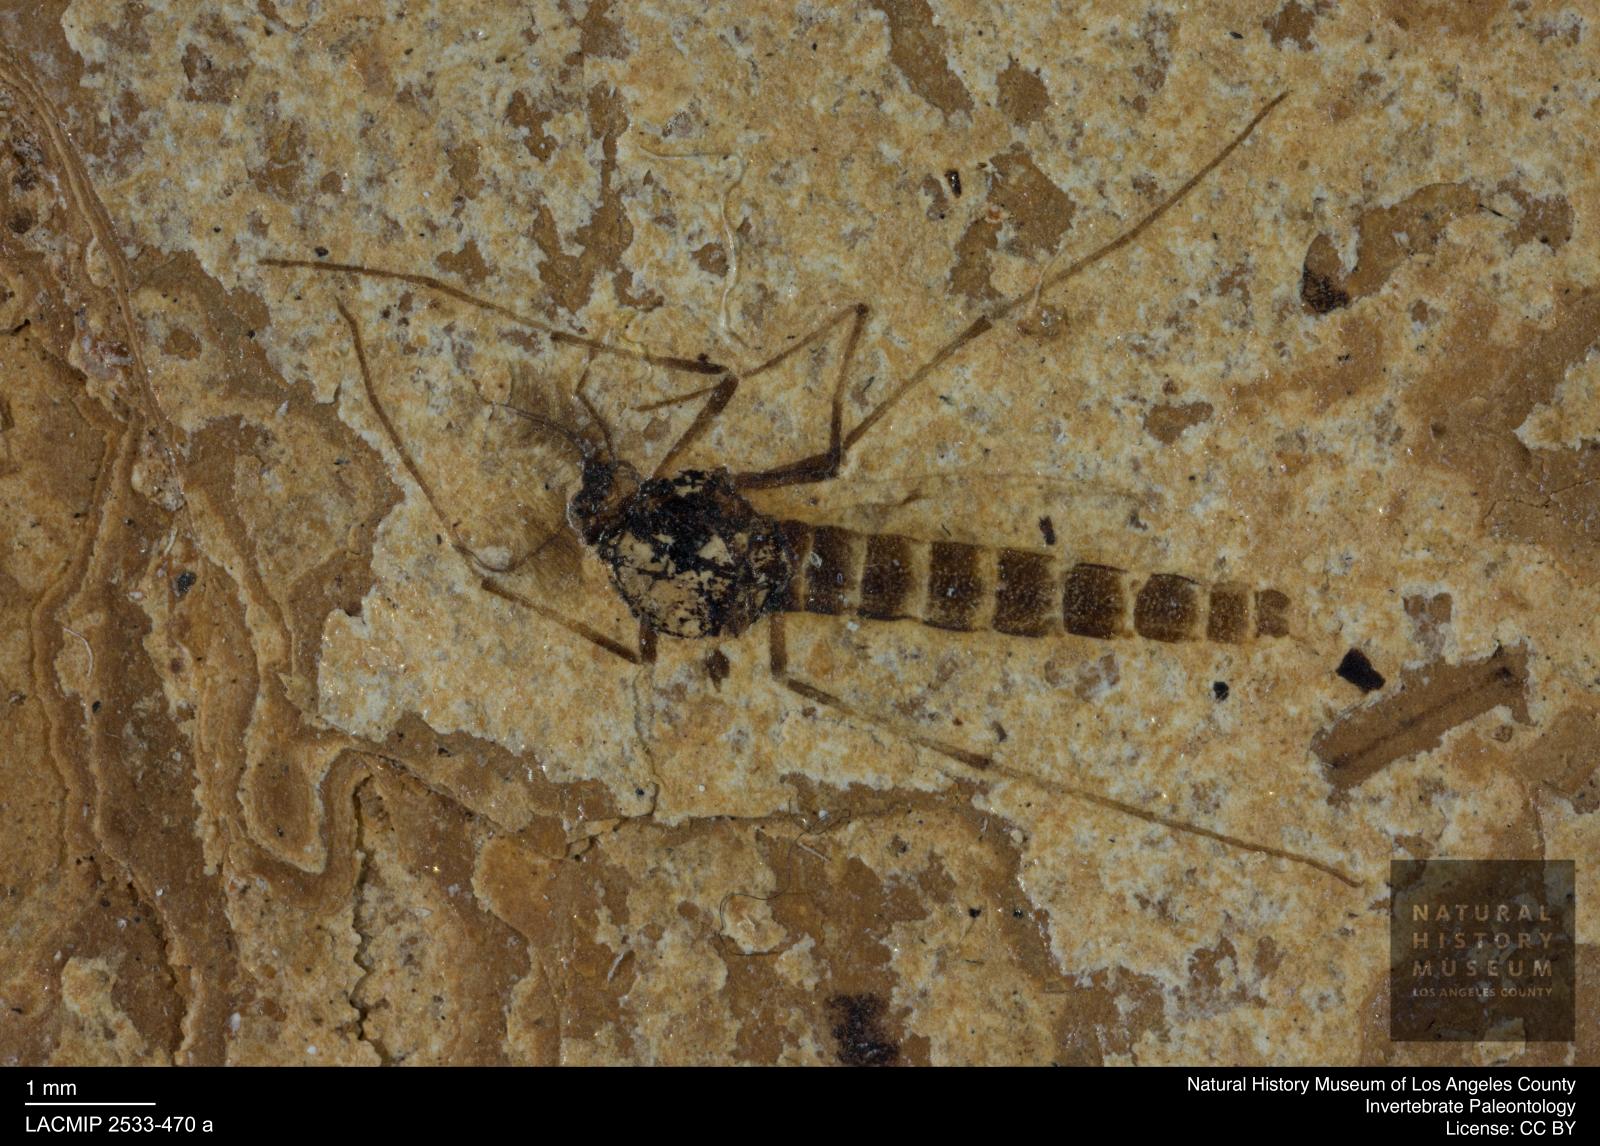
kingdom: Animalia
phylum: Arthropoda
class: Insecta
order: Diptera
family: Chironomidae
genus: Procladius
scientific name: Procladius
